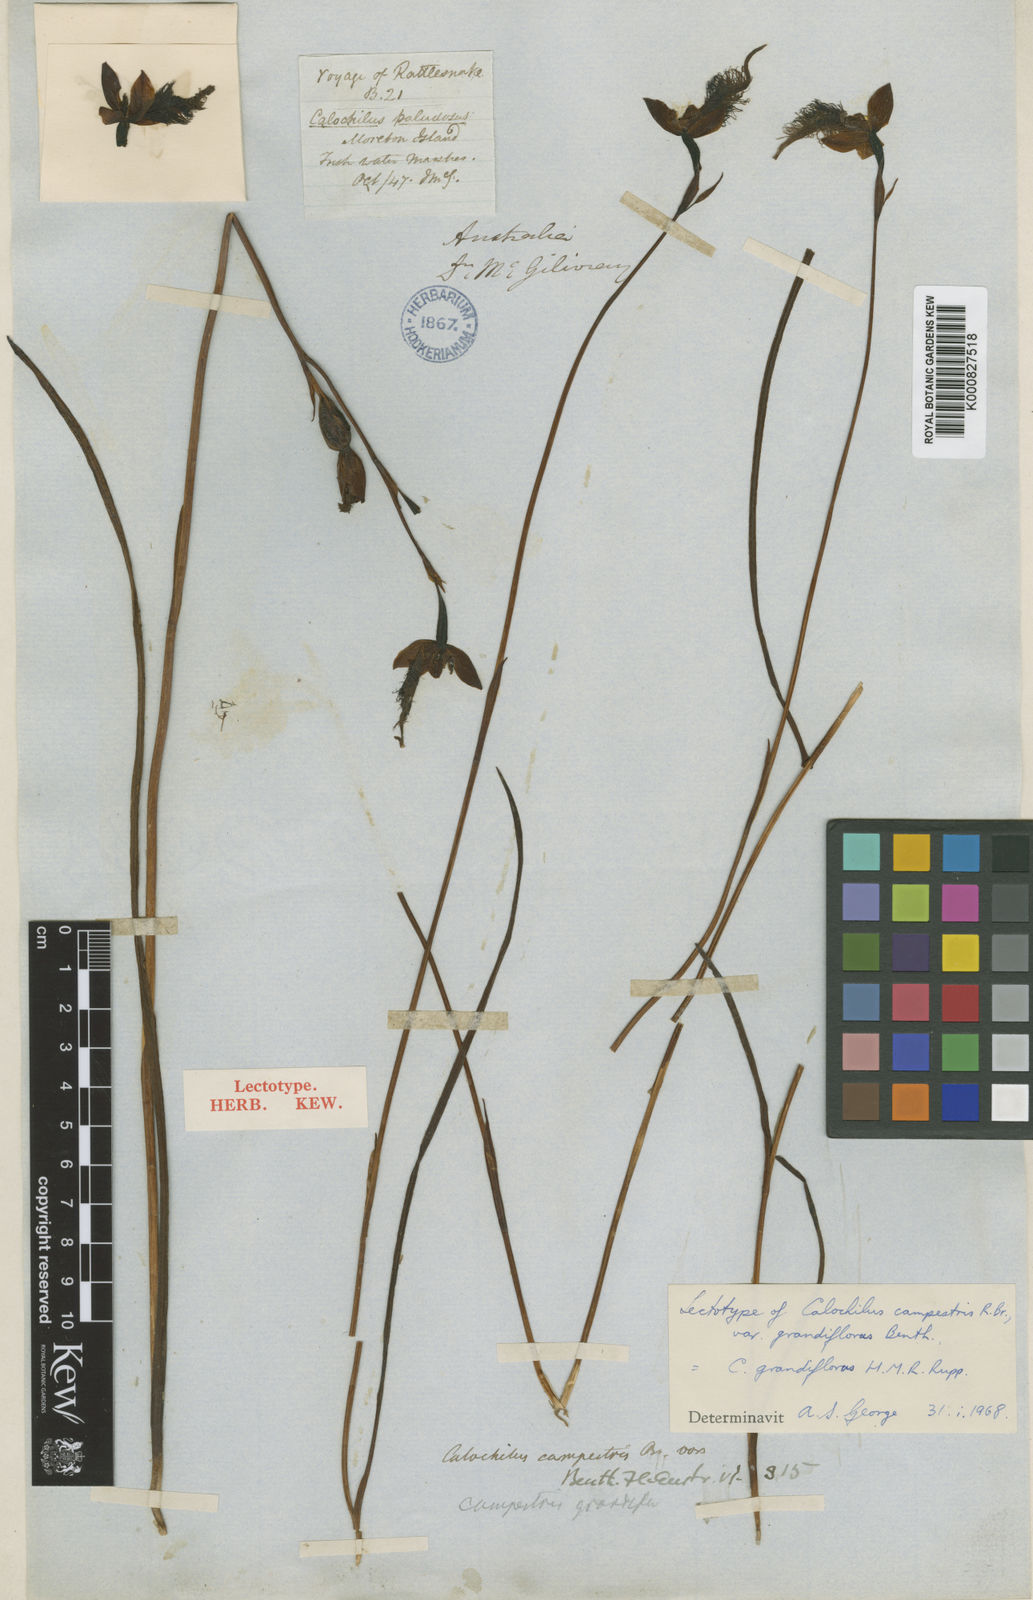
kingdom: Plantae
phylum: Tracheophyta
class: Liliopsida
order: Asparagales
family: Orchidaceae
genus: Calochilus
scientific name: Calochilus grandiflorus
